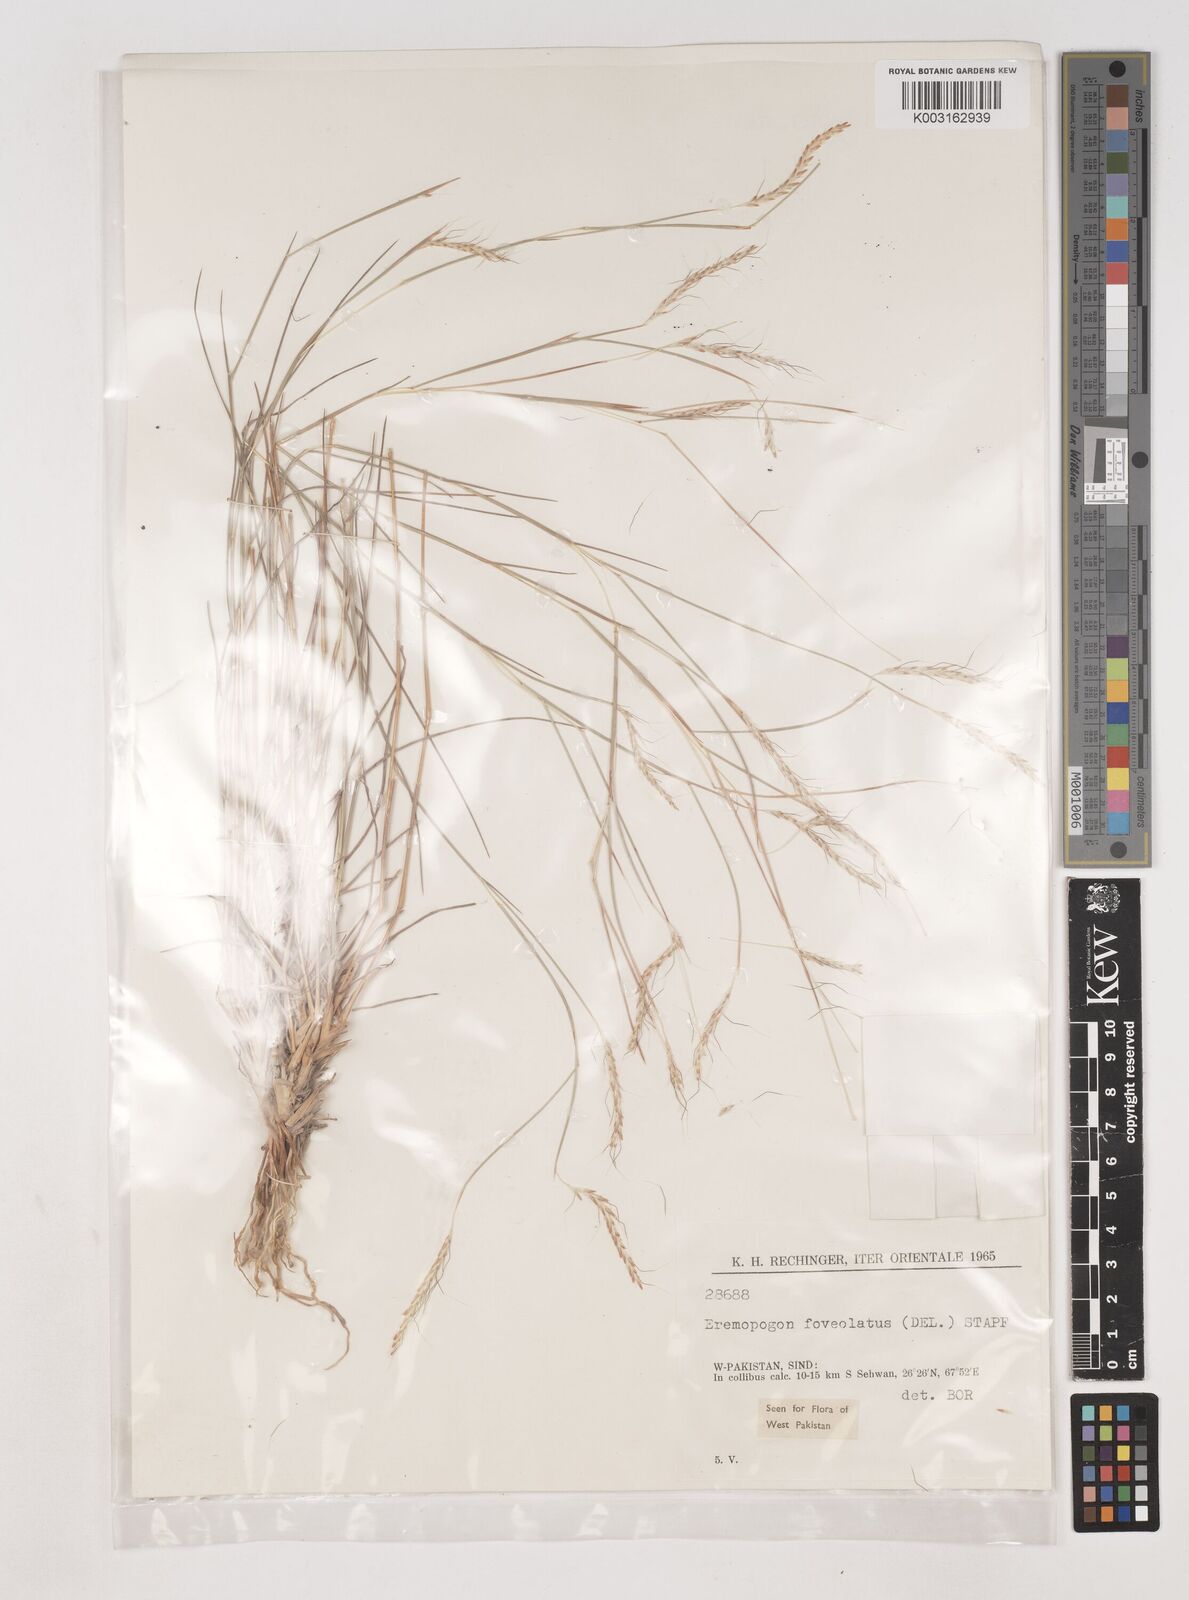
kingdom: Plantae
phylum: Tracheophyta
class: Liliopsida
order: Poales
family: Poaceae
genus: Dichanthium
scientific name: Dichanthium
